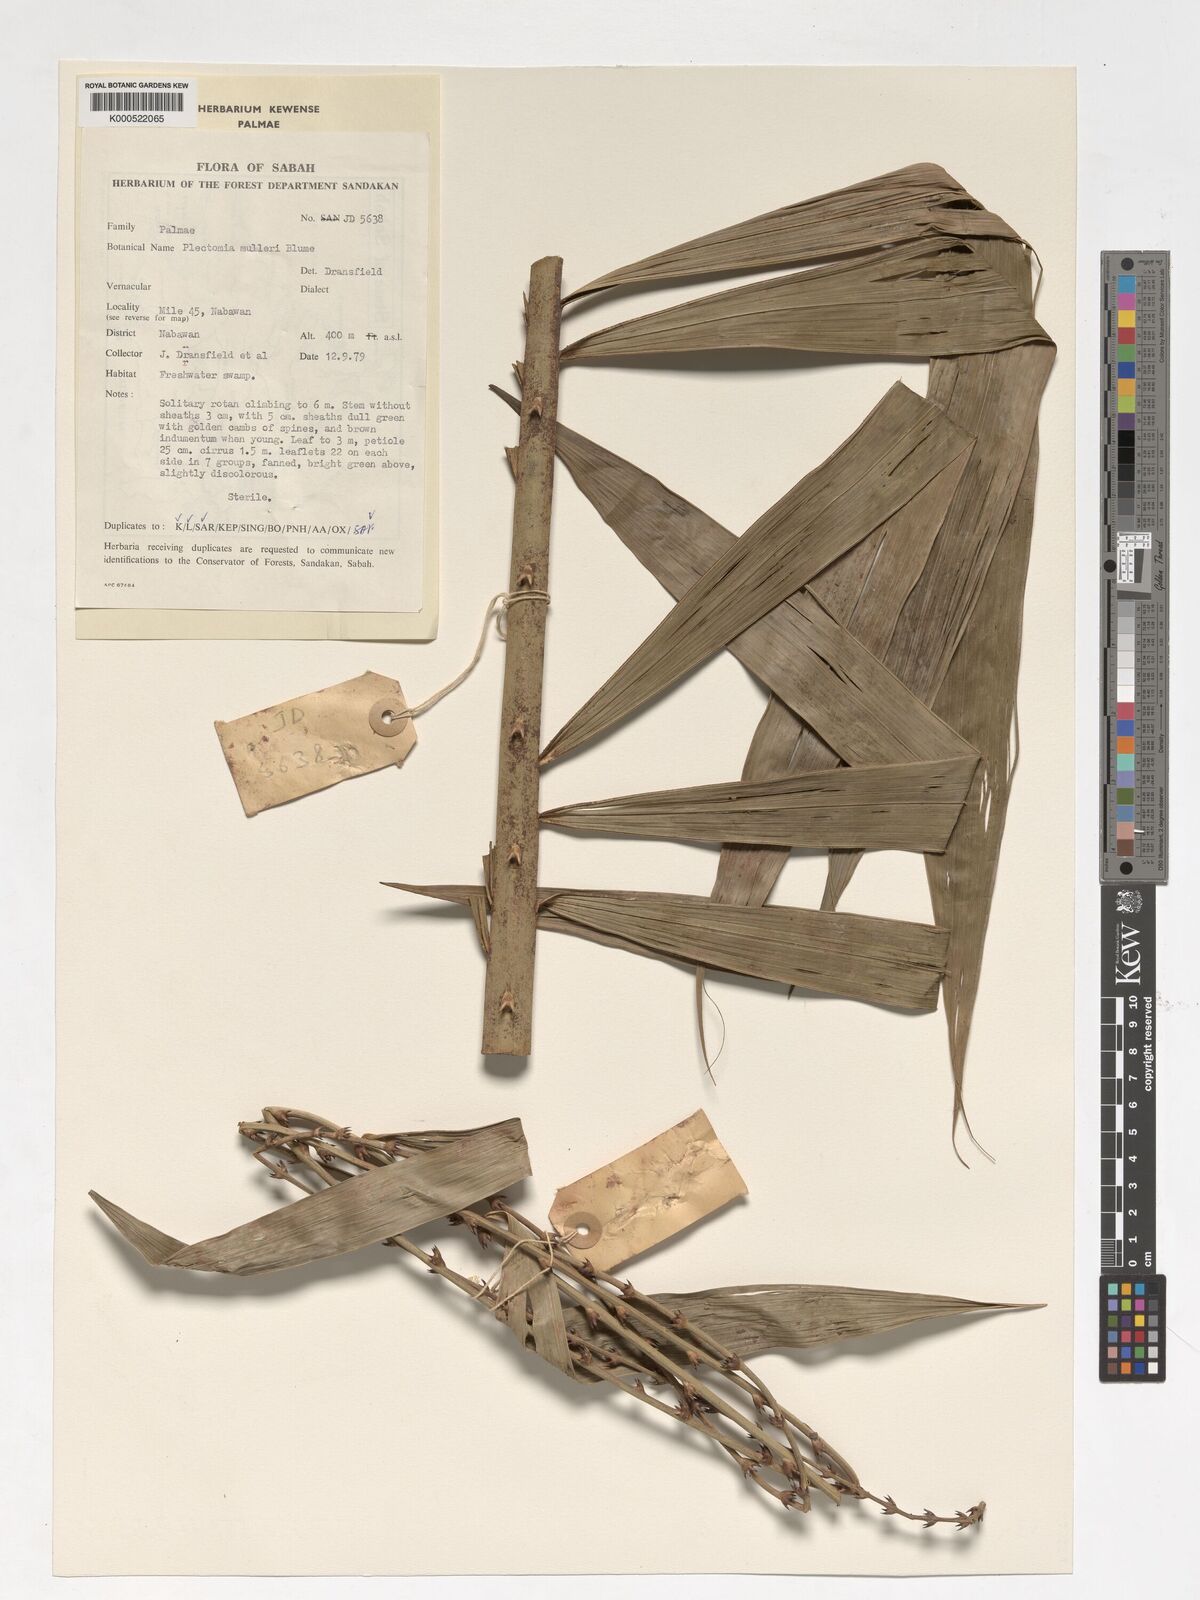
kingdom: Plantae
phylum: Tracheophyta
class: Liliopsida
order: Arecales
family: Arecaceae
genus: Plectocomia
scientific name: Plectocomia mulleri
